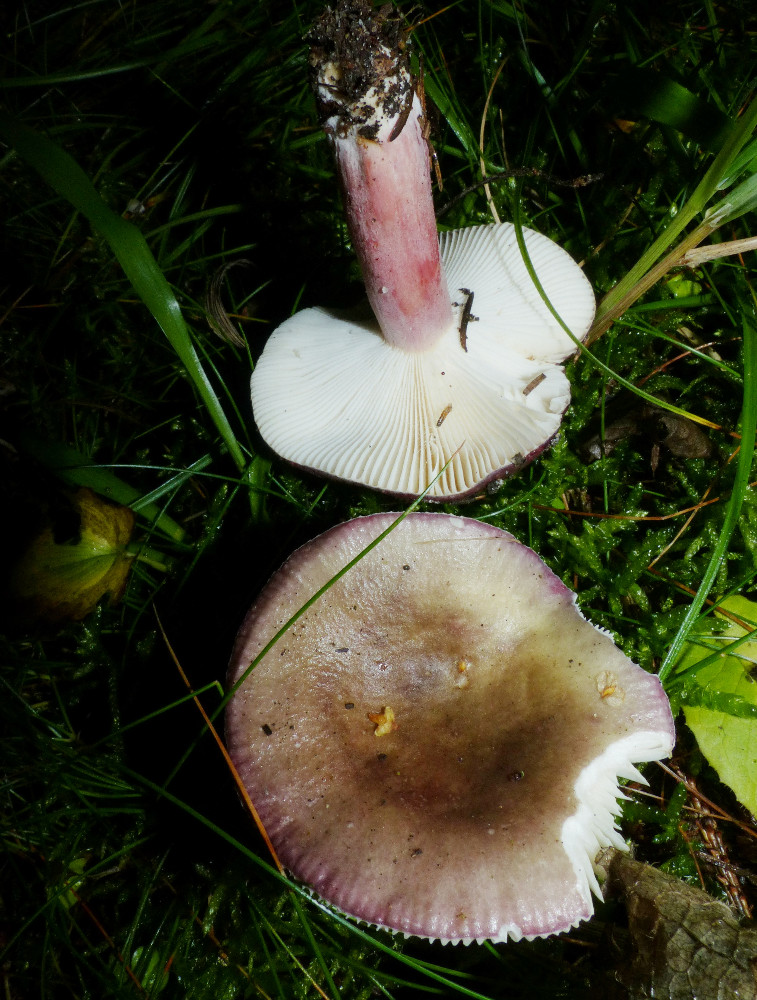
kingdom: Fungi
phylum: Basidiomycota
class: Agaricomycetes
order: Russulales
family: Russulaceae
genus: Russula
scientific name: Russula queletii
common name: Quélets skørhat
